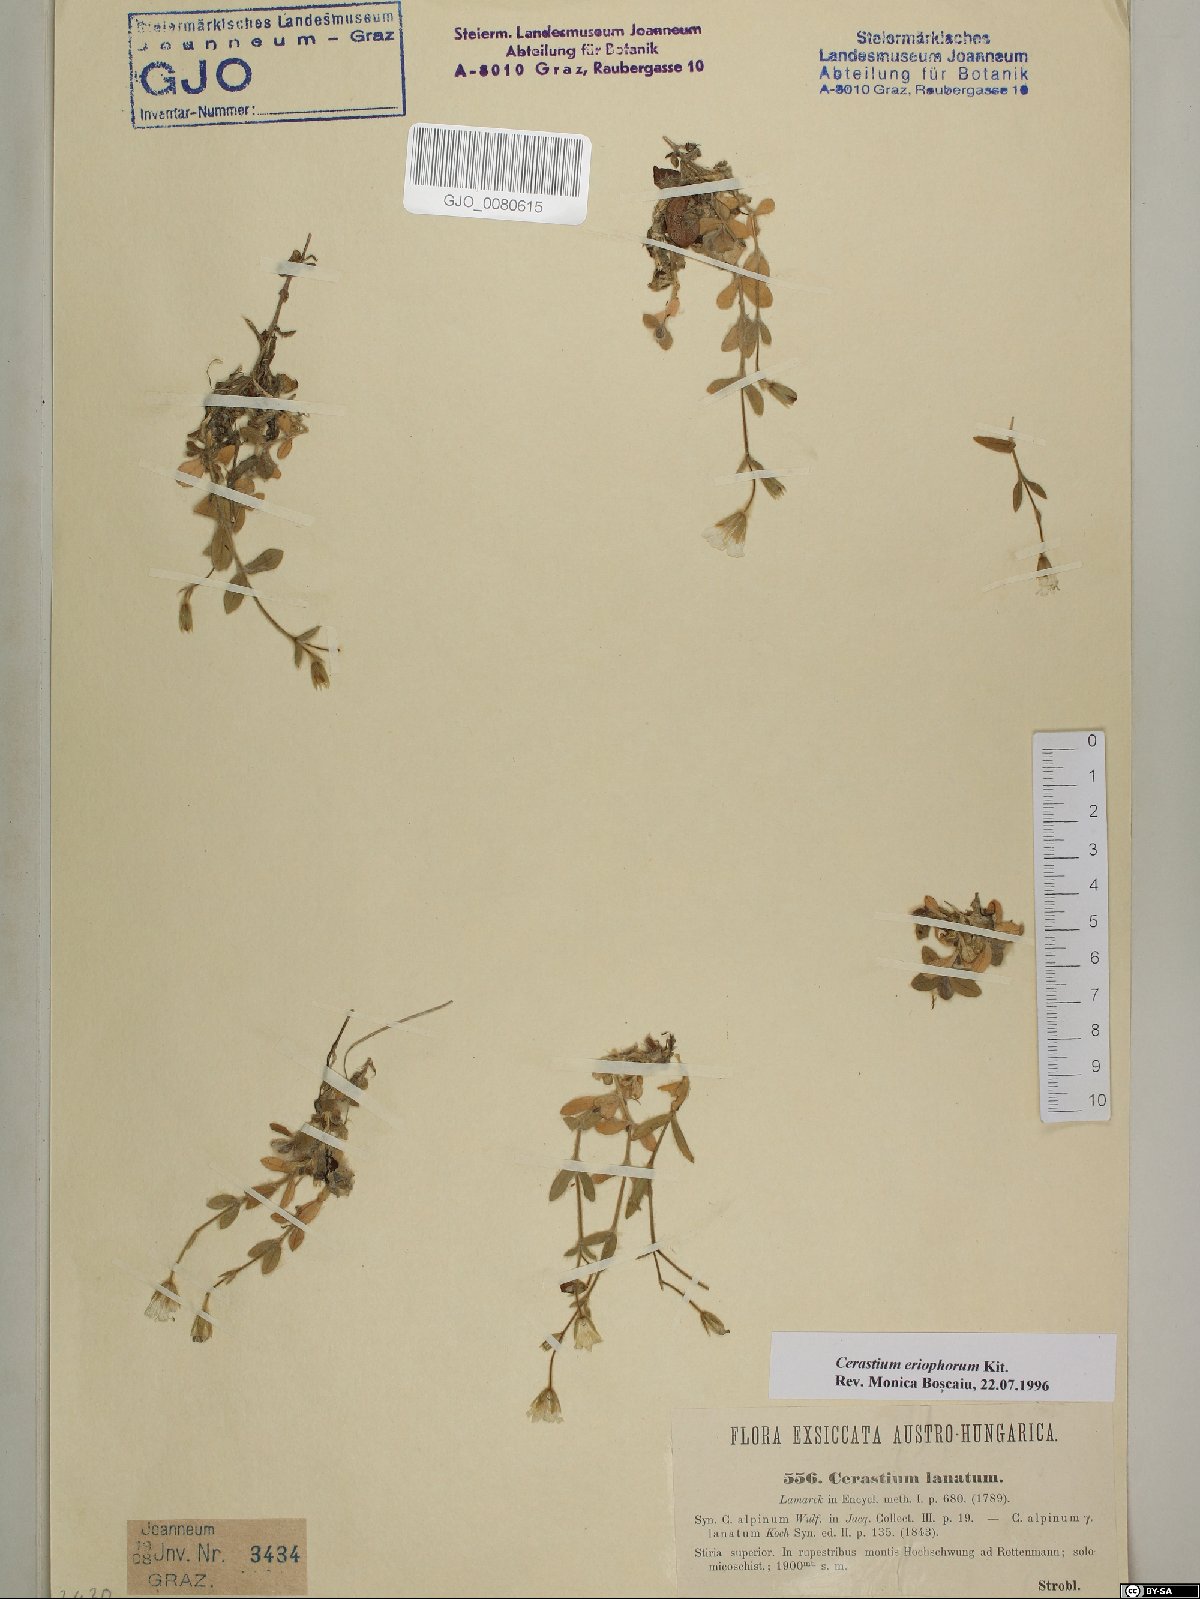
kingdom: Plantae
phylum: Tracheophyta
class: Magnoliopsida
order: Caryophyllales
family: Caryophyllaceae
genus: Cerastium
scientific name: Cerastium eriophorum
